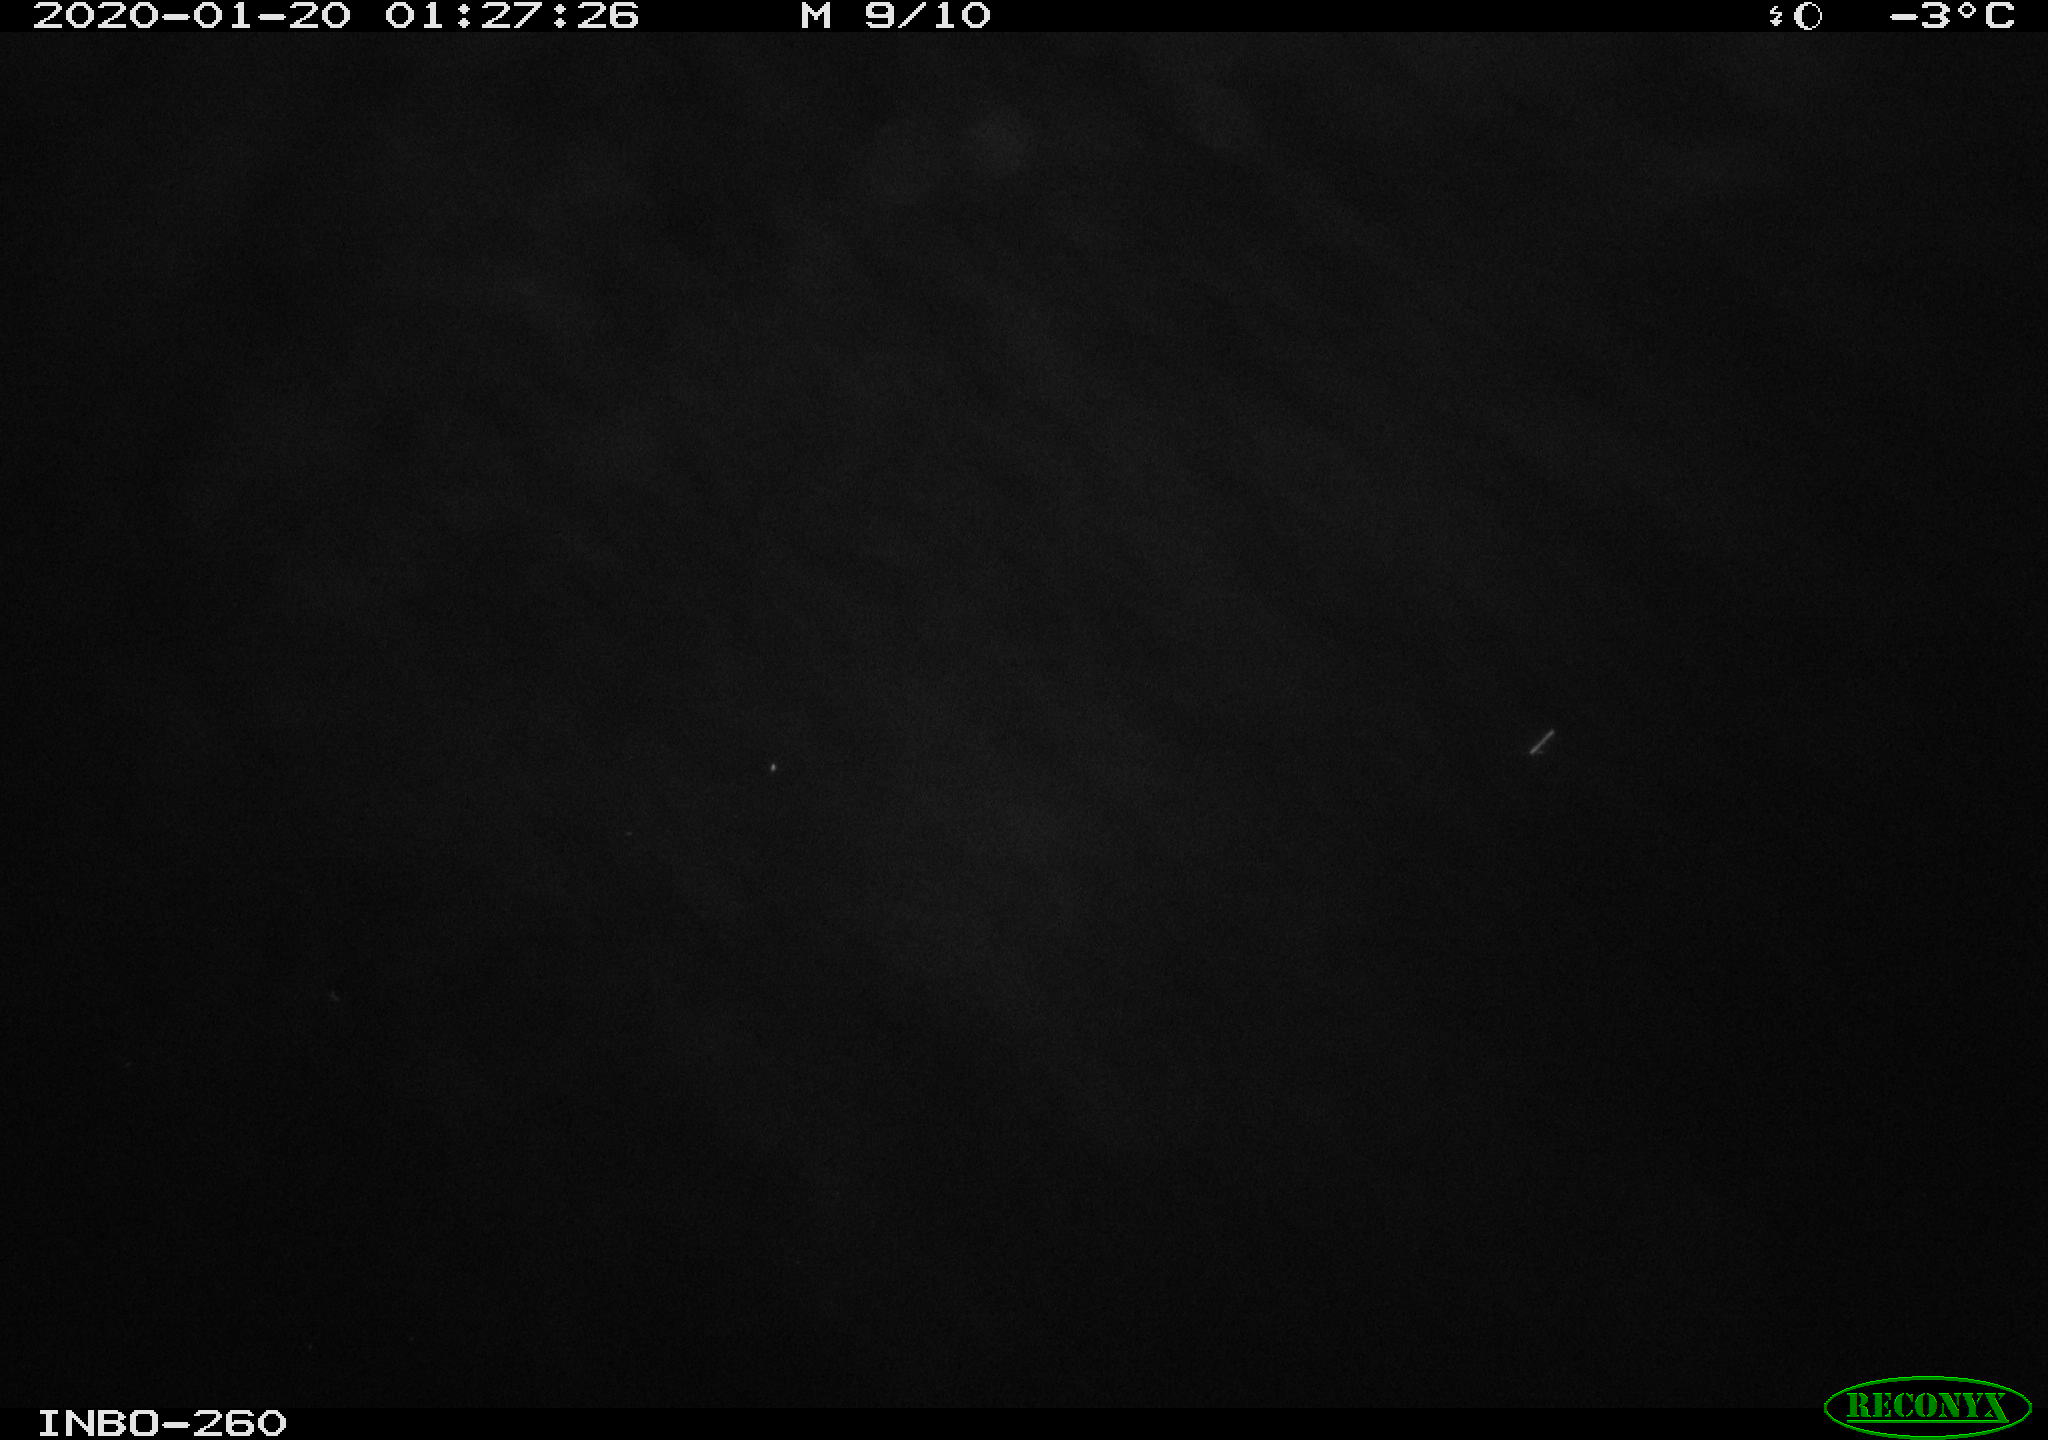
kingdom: Animalia
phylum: Chordata
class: Aves
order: Anseriformes
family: Anatidae
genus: Anas
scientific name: Anas platyrhynchos
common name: Mallard
